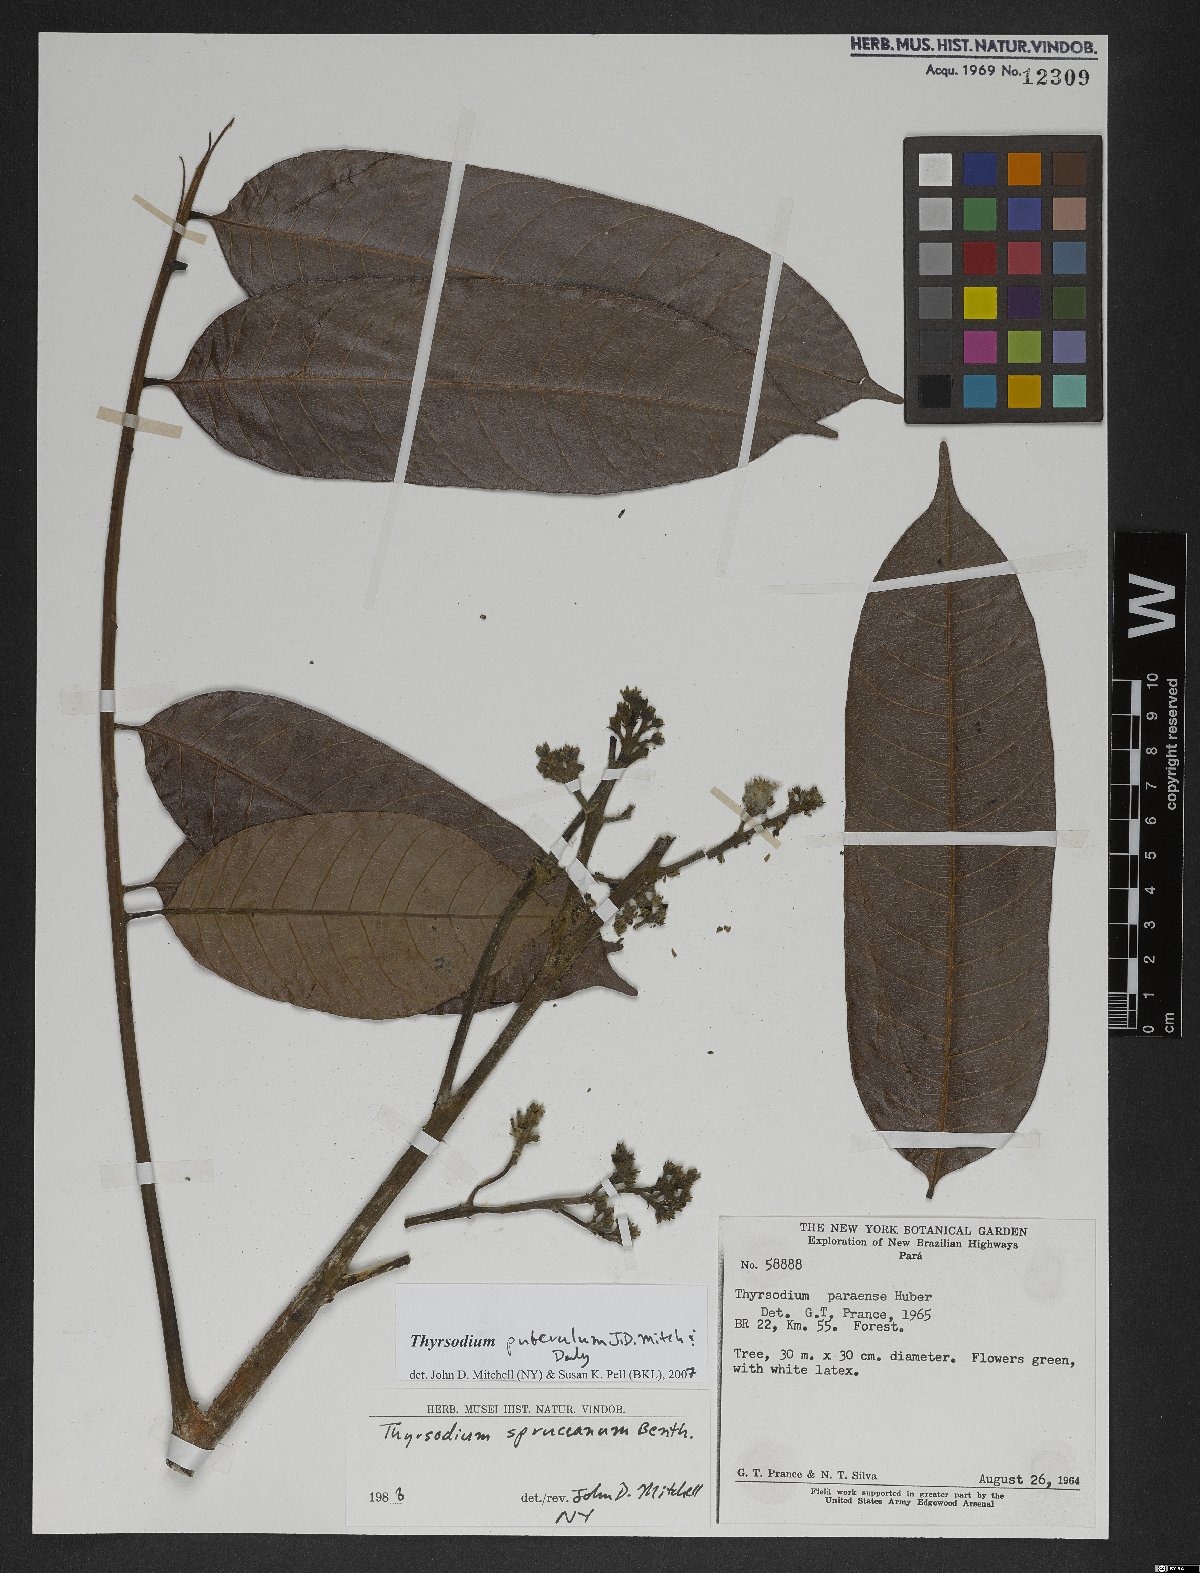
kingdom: Plantae
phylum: Tracheophyta
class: Magnoliopsida
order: Sapindales
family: Anacardiaceae
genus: Thyrsodium
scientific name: Thyrsodium puberulum
